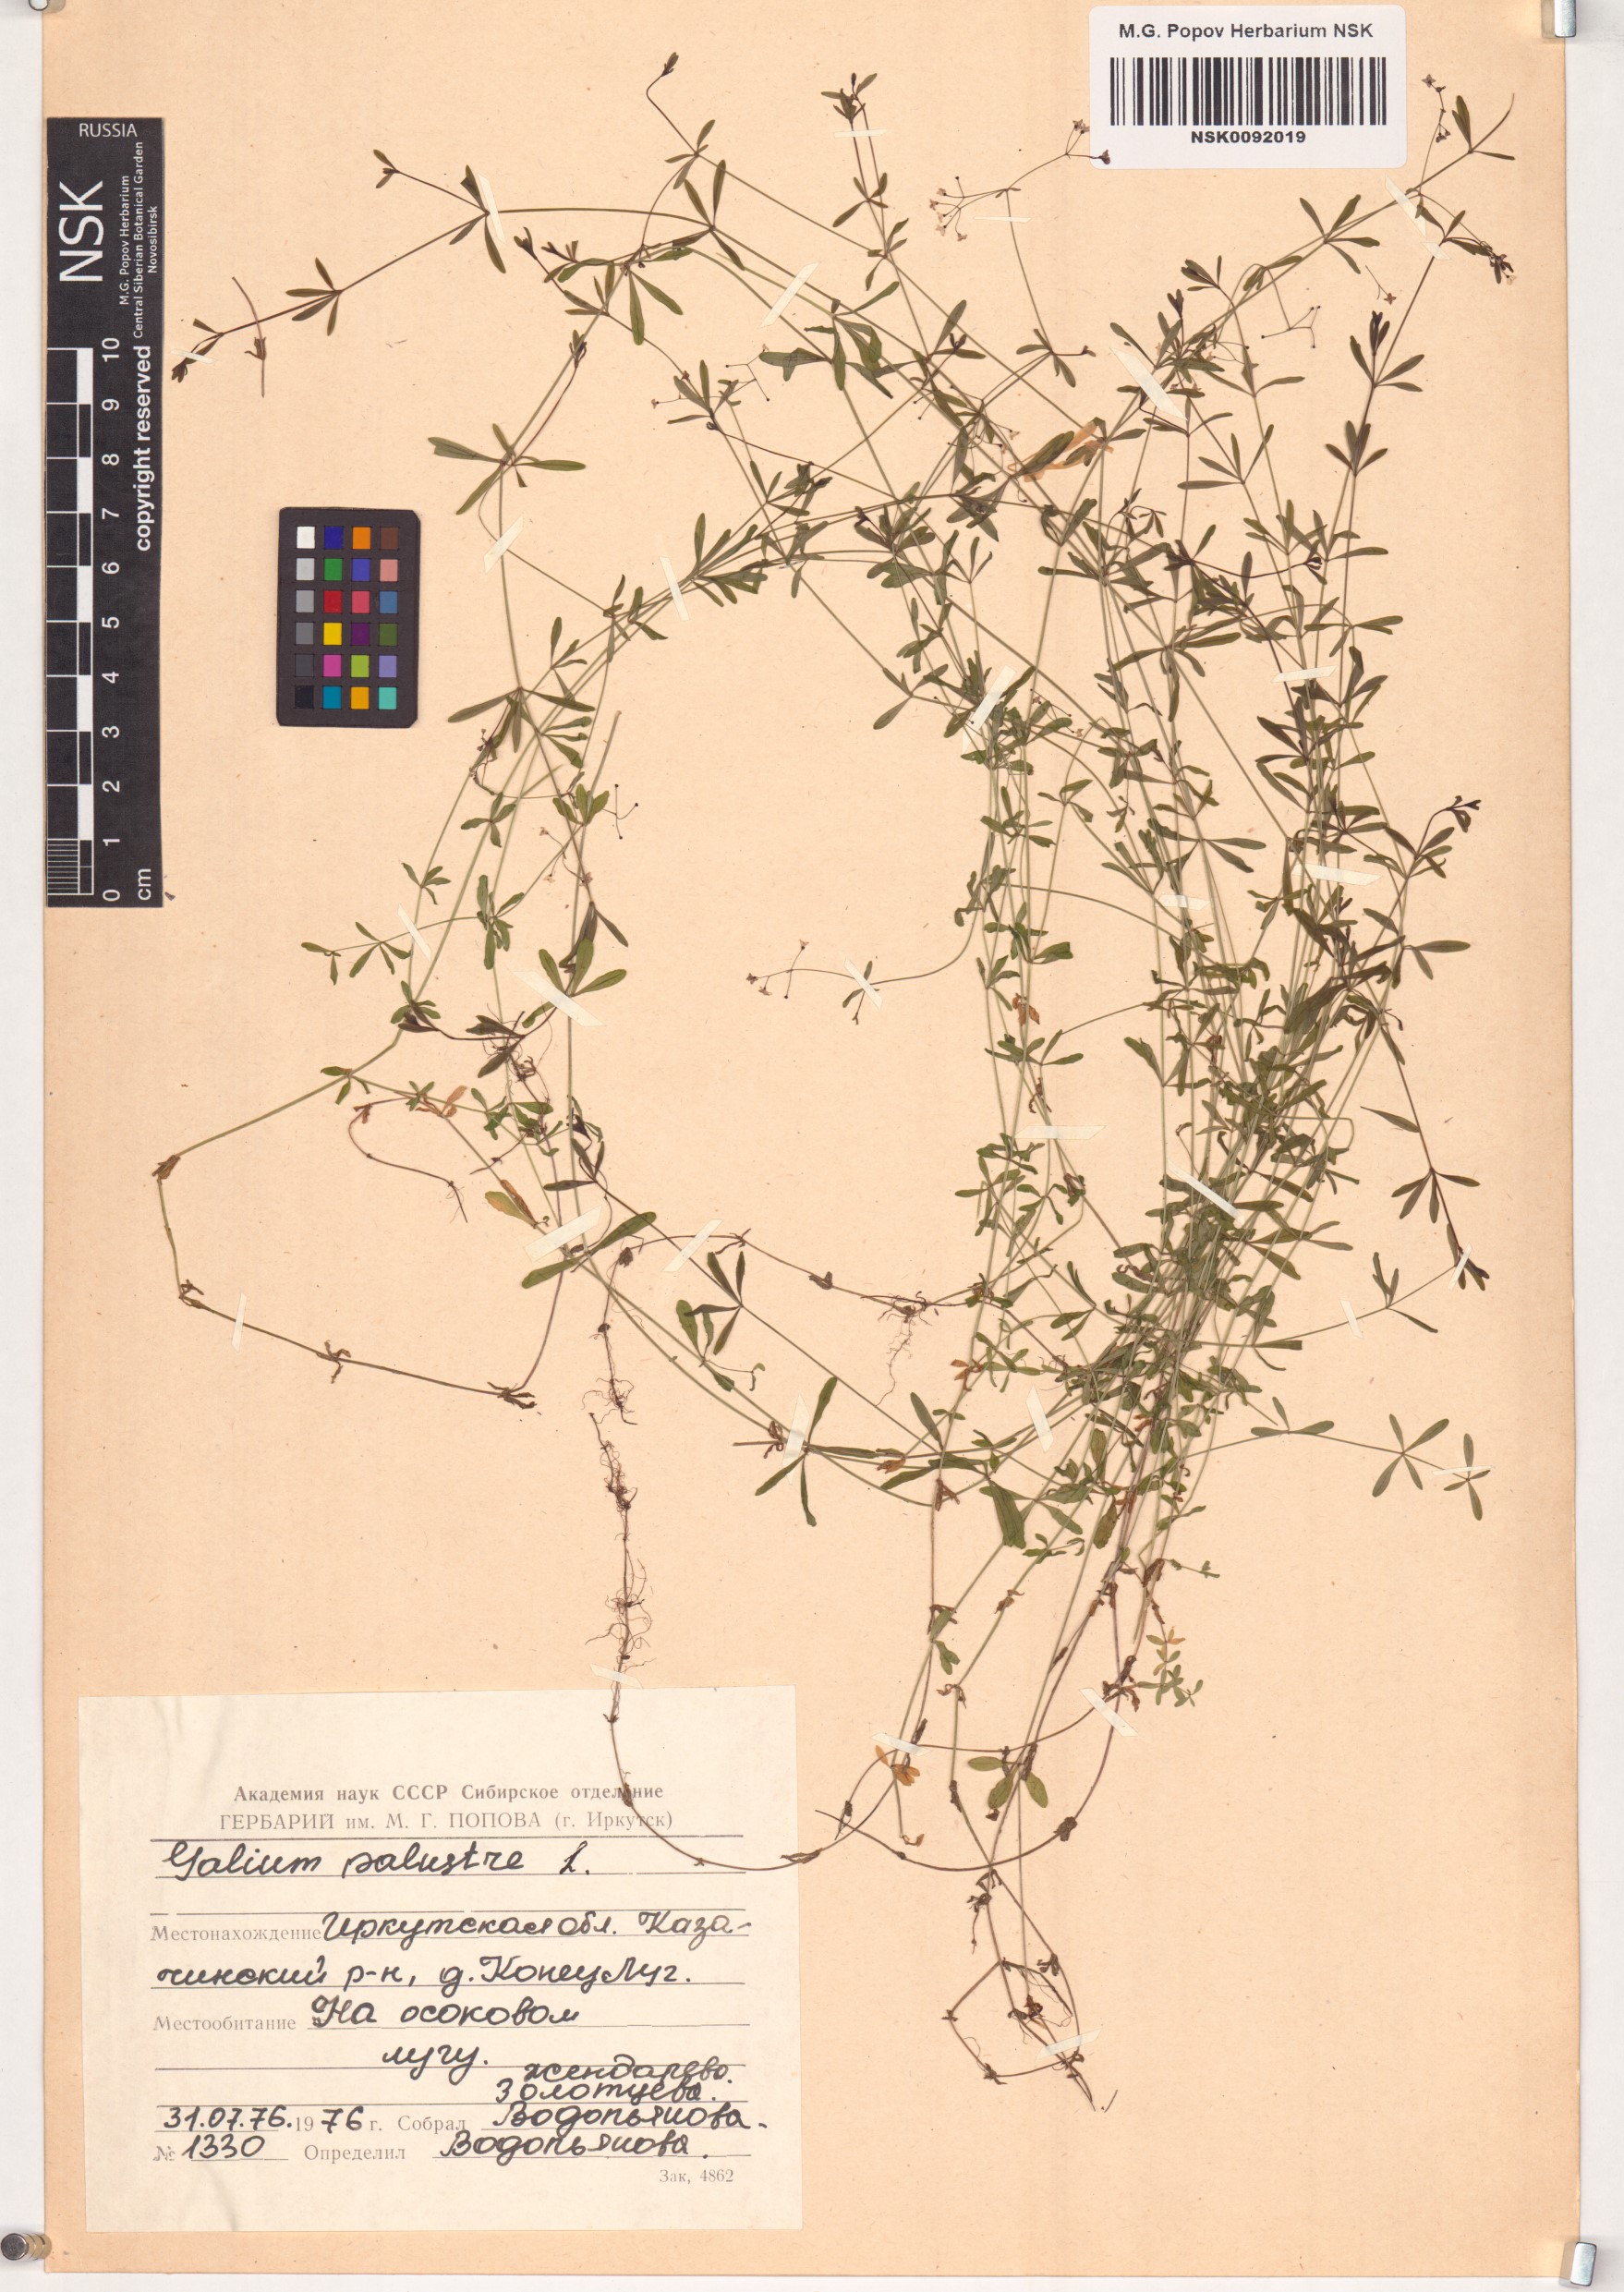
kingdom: Plantae
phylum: Tracheophyta
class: Magnoliopsida
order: Gentianales
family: Rubiaceae
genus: Galium
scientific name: Galium palustre
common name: Common marsh-bedstraw
